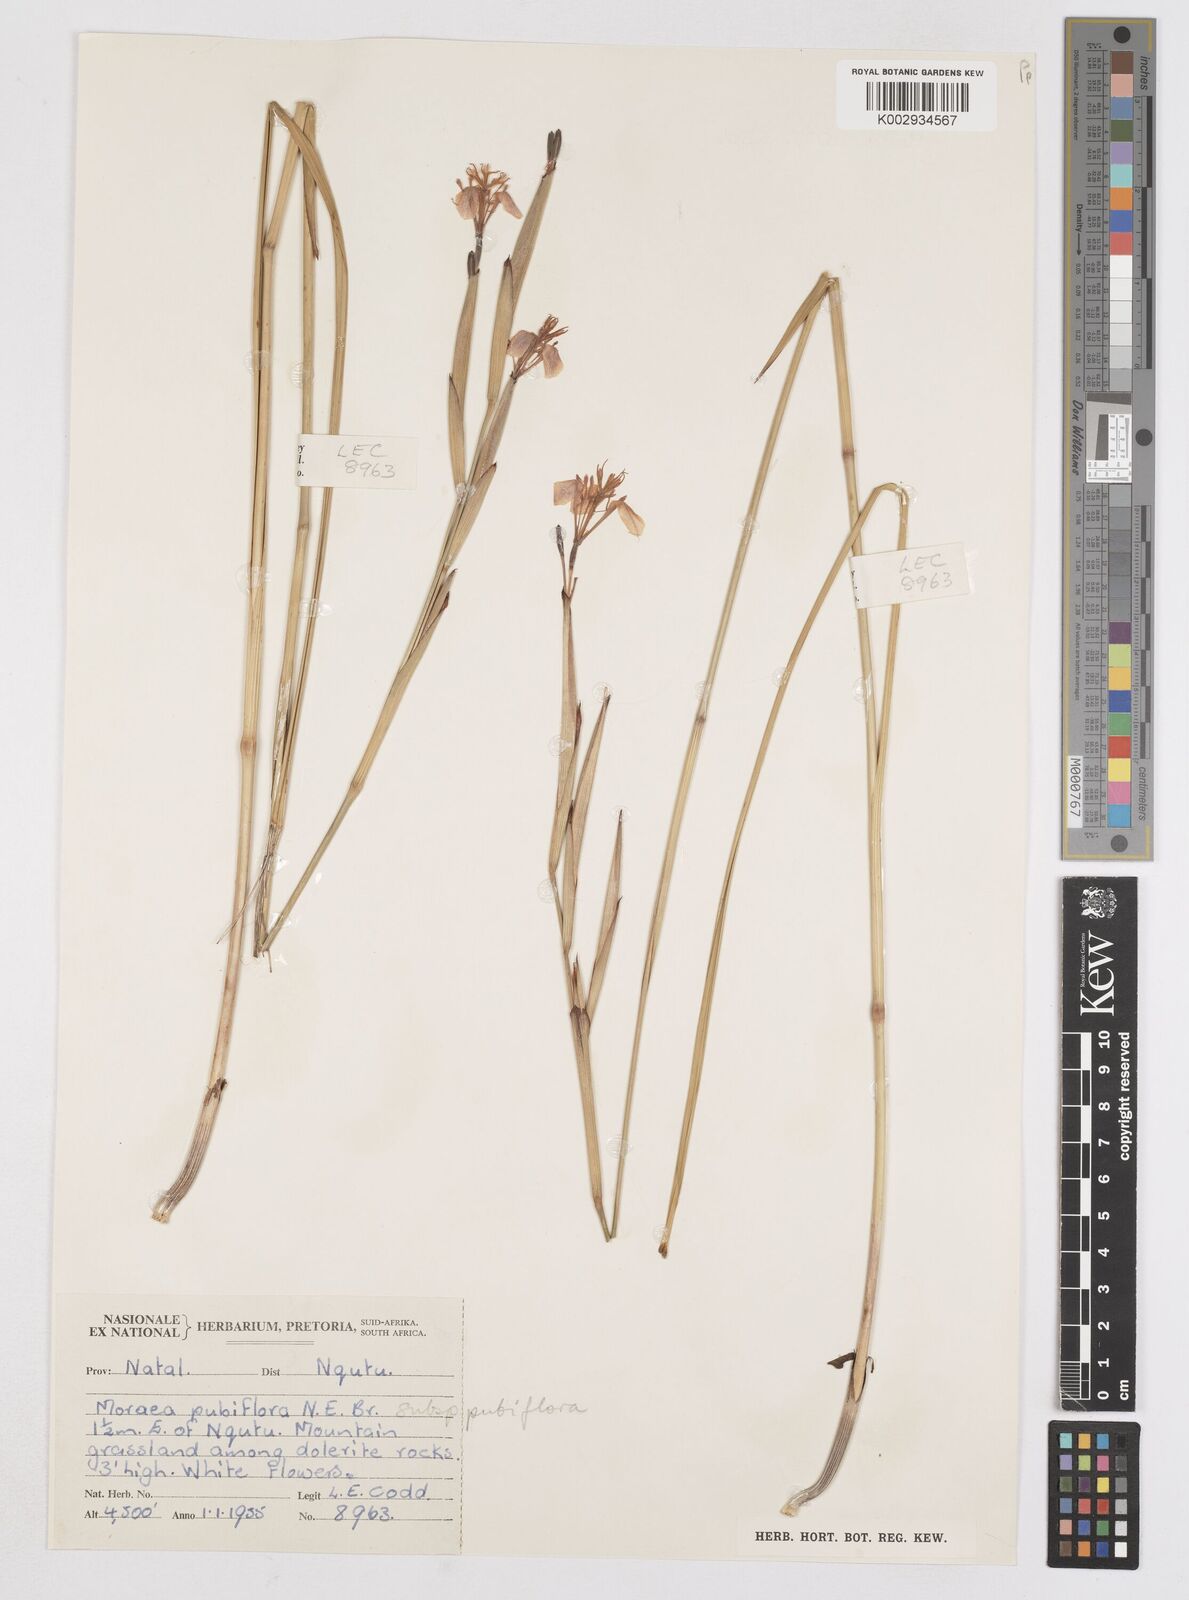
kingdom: Plantae
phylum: Tracheophyta
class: Liliopsida
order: Asparagales
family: Iridaceae
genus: Moraea
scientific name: Moraea pubiflora
